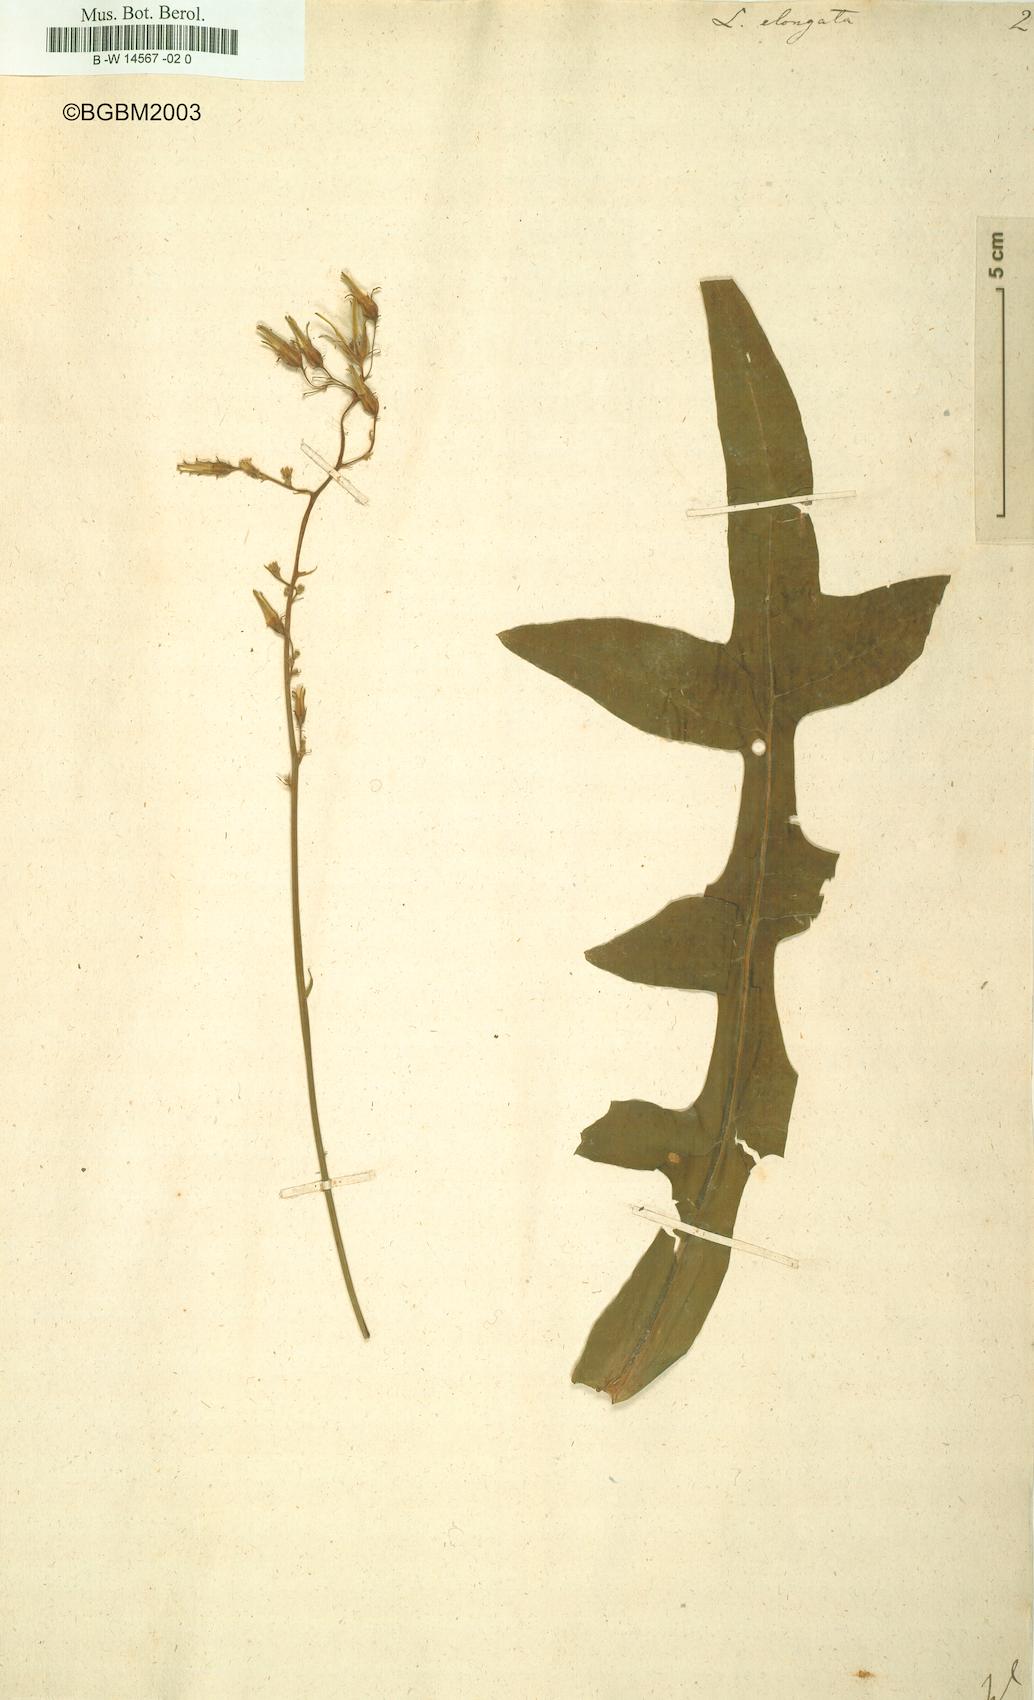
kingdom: Plantae
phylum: Tracheophyta
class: Magnoliopsida
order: Asterales
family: Asteraceae
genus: Lactuca
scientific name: Lactuca canadensis
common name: Canada lettuce
